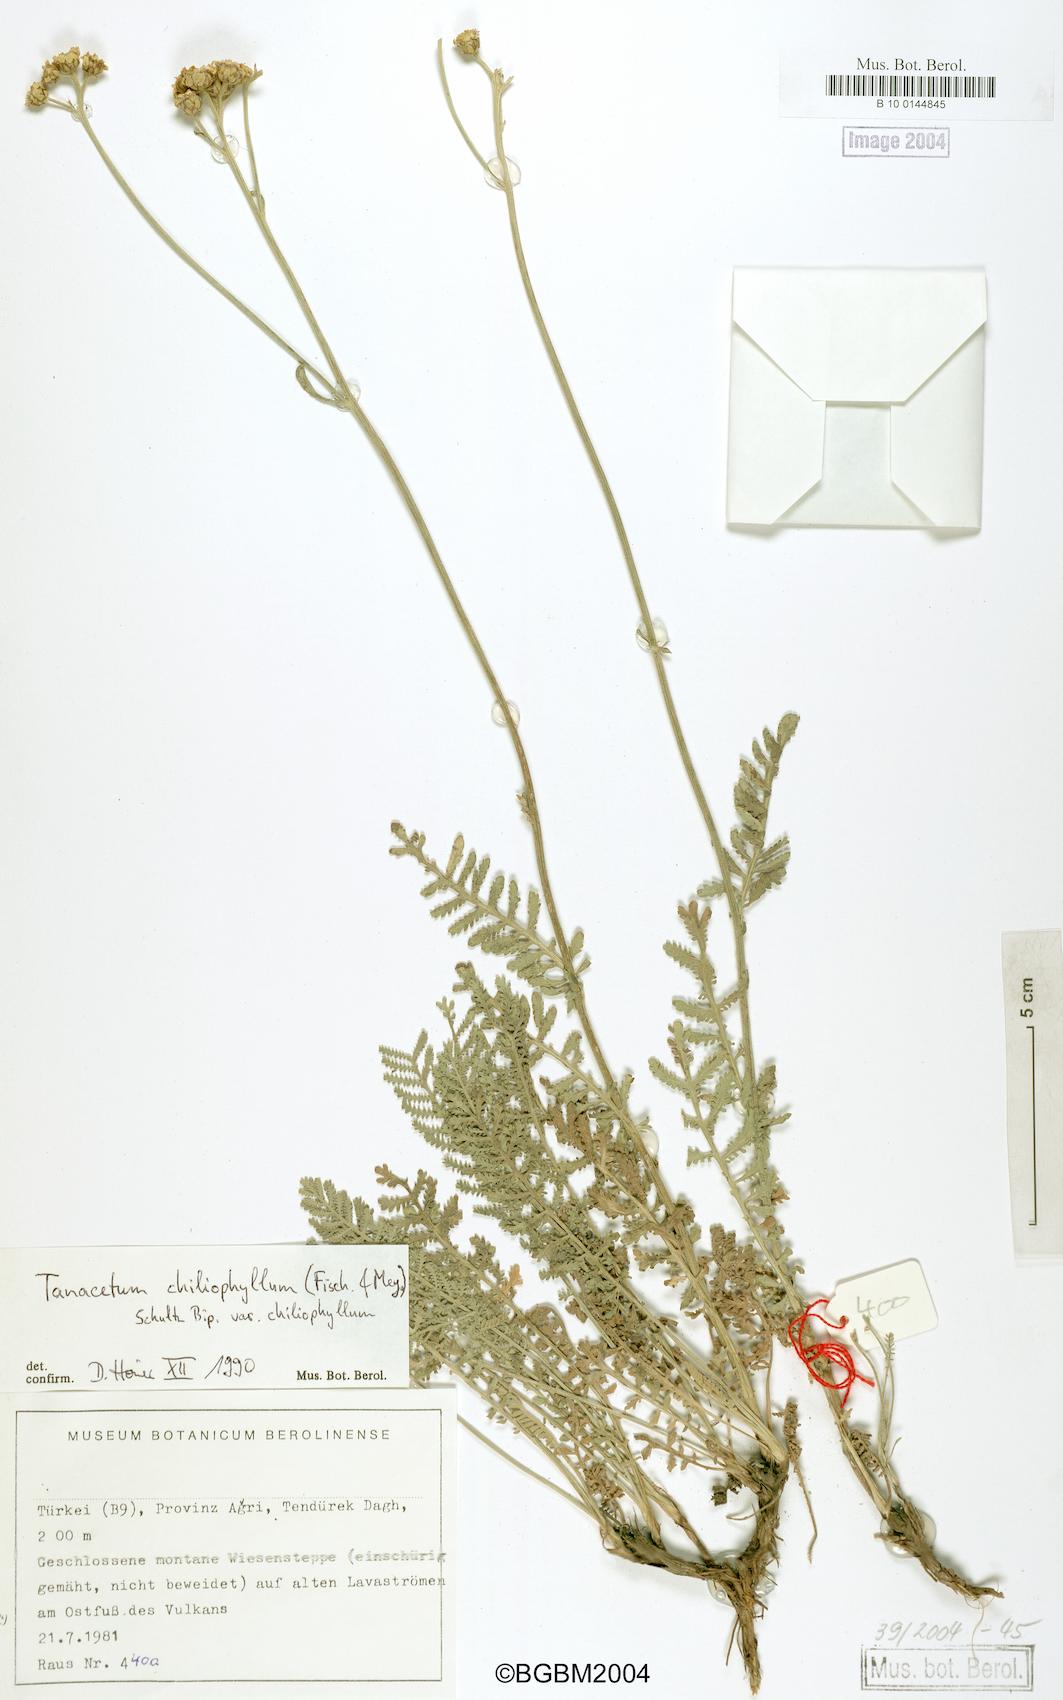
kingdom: Plantae
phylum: Tracheophyta
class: Magnoliopsida
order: Asterales
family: Asteraceae
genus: Tanacetum
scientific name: Tanacetum aureum
